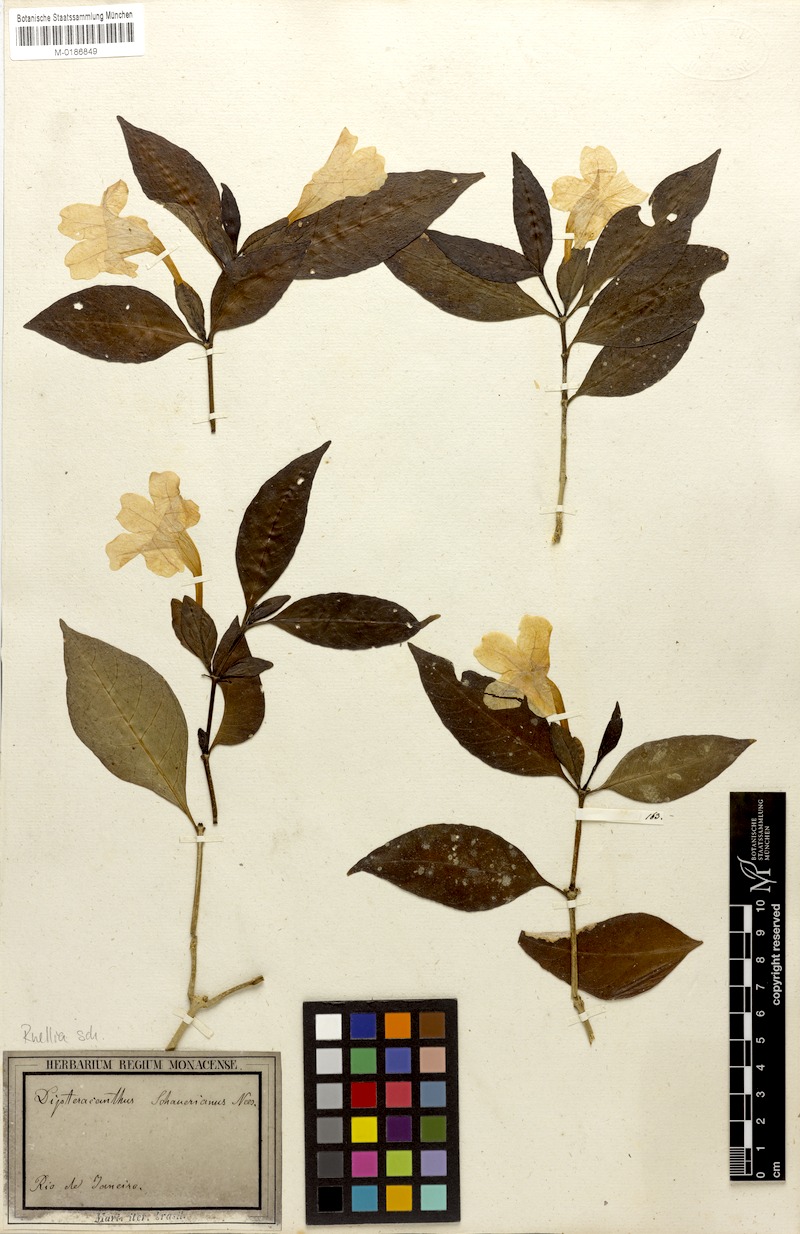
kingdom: Plantae
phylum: Tracheophyta
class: Magnoliopsida
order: Lamiales
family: Acanthaceae
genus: Ruellia
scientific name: Ruellia solitaria
